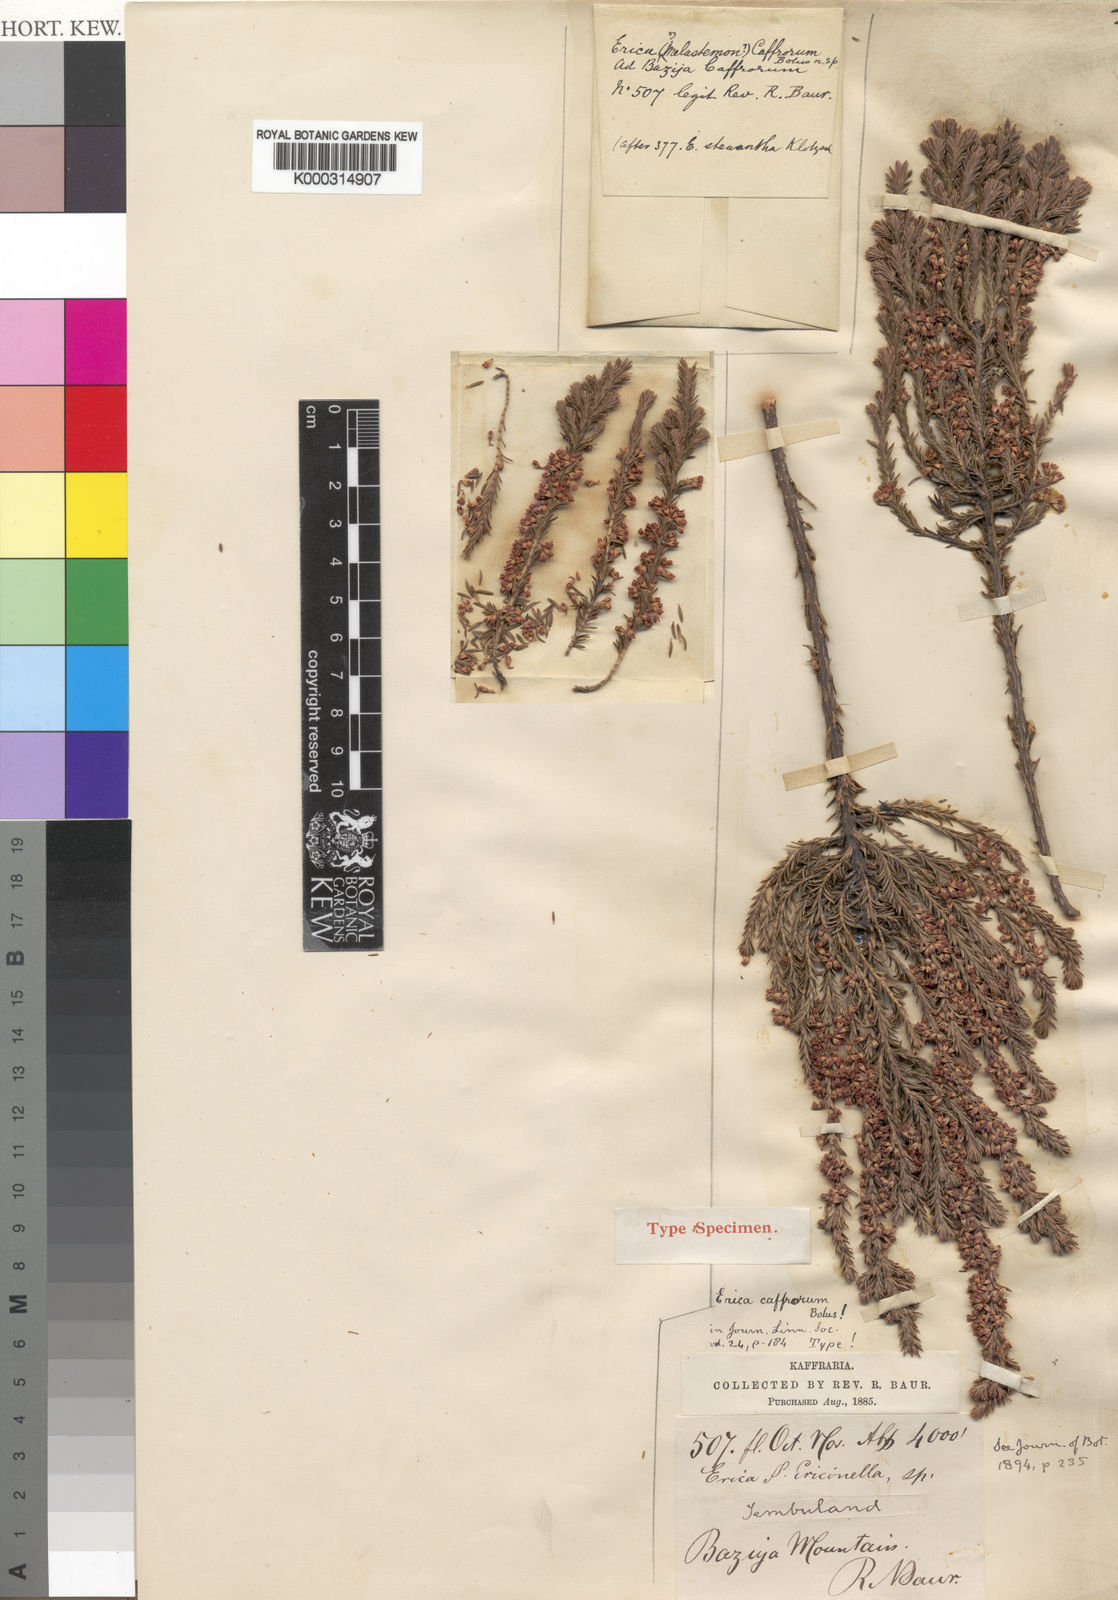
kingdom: Plantae
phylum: Tracheophyta
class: Magnoliopsida
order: Ericales
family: Ericaceae
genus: Erica
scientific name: Erica caffrorum
